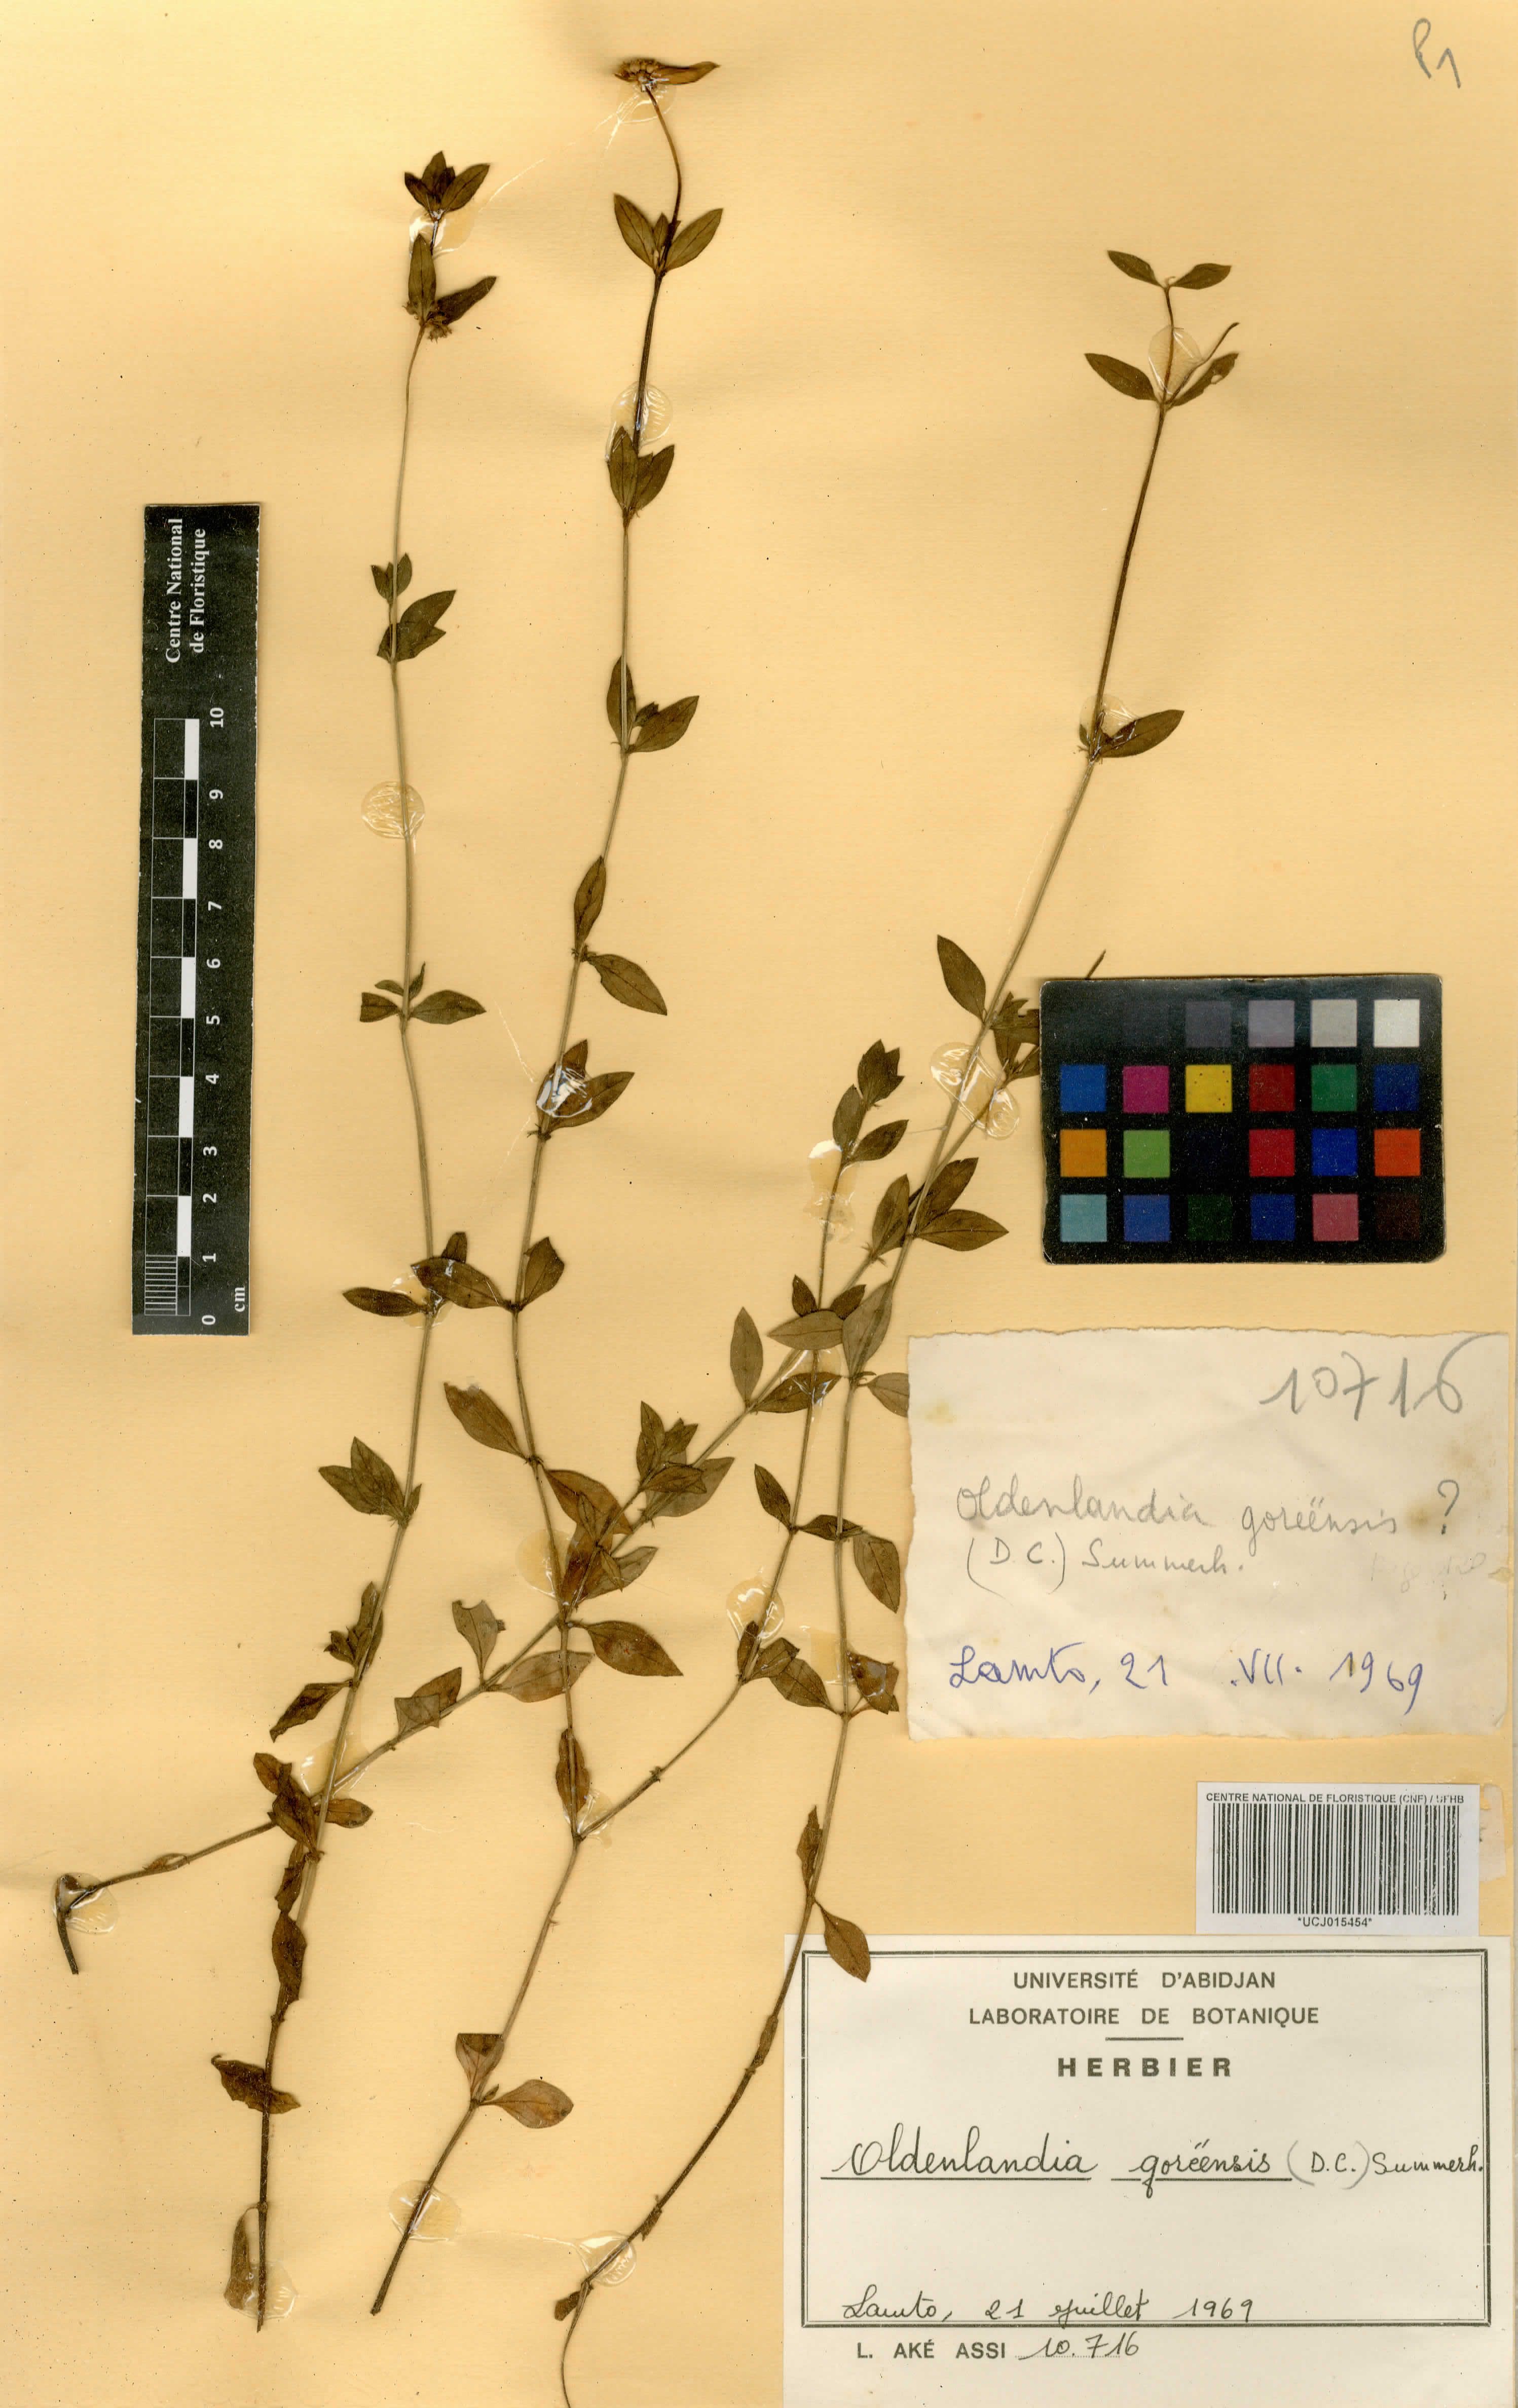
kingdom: Plantae
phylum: Tracheophyta
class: Magnoliopsida
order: Gentianales
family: Rubiaceae
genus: Edrastima
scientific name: Edrastima goreensis
